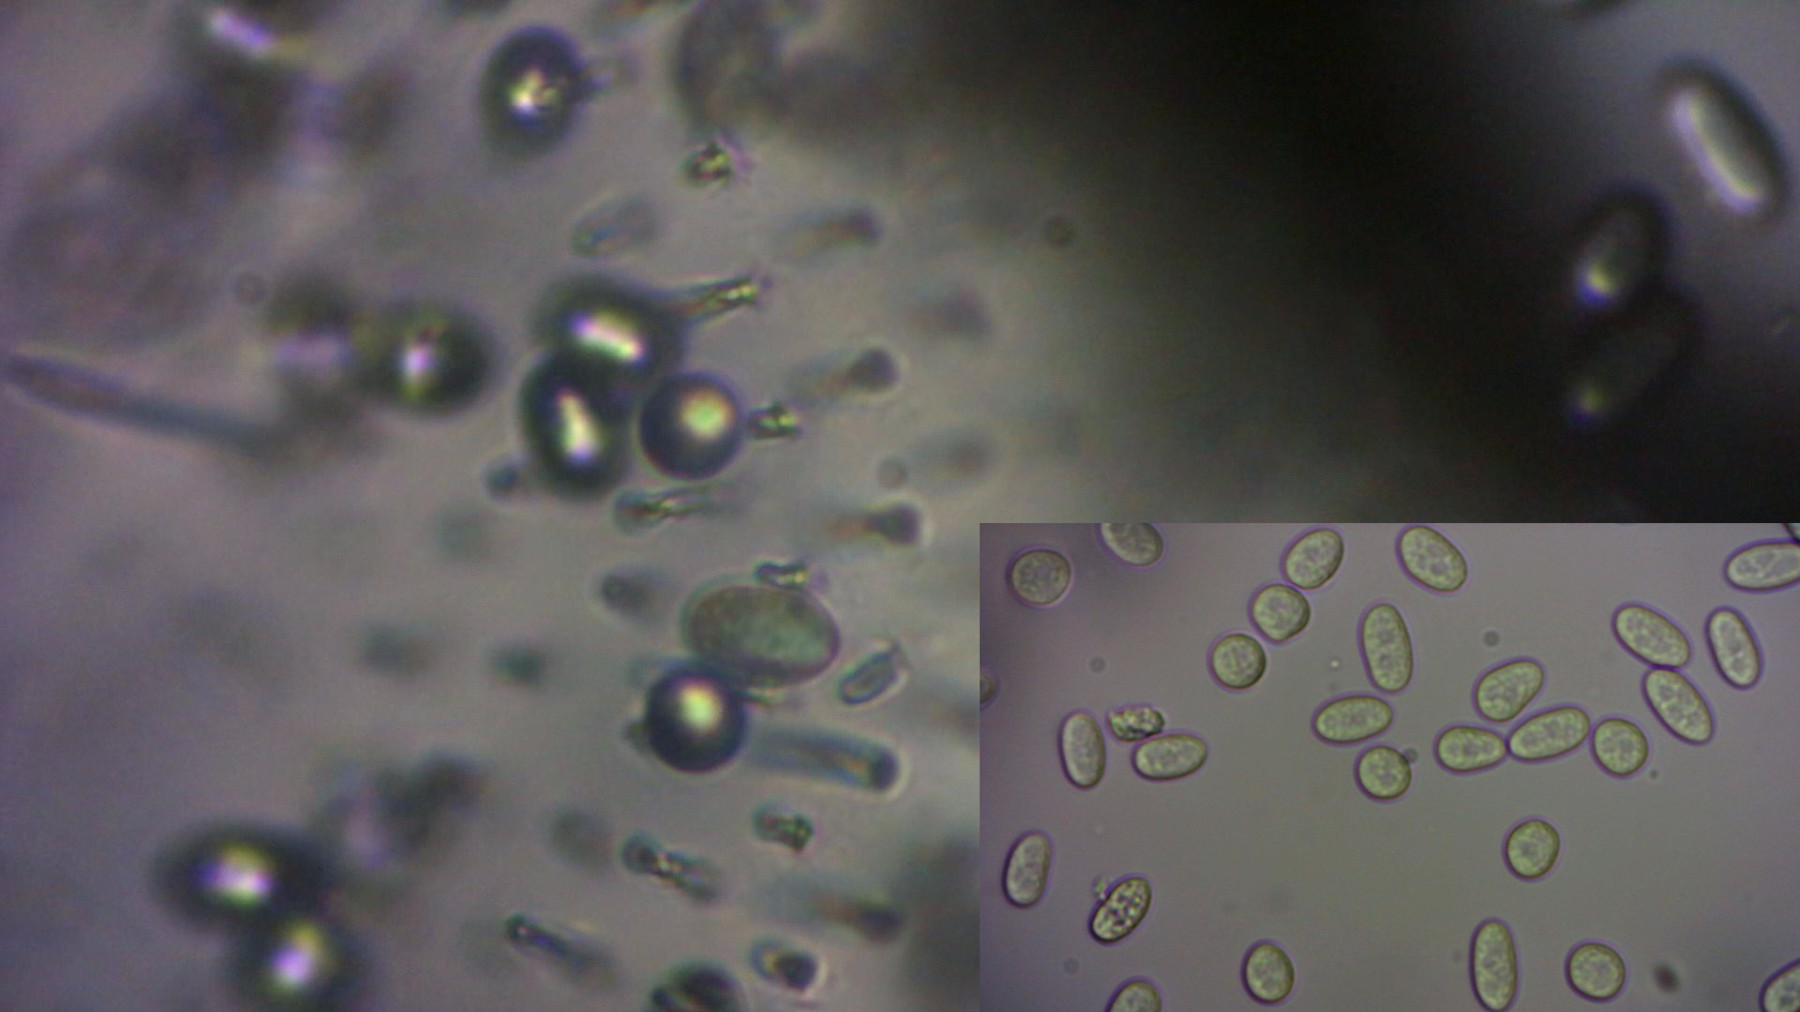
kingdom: Protozoa
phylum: Mycetozoa
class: Protosteliomycetes
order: Ceratiomyxales
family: Ceratiomyxaceae
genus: Ceratiomyxa
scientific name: Ceratiomyxa fruticulosa
